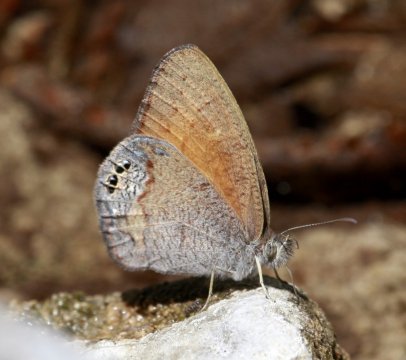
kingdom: Animalia
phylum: Arthropoda
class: Insecta
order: Lepidoptera
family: Nymphalidae
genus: Euptychia
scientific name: Euptychia Cyllopsis pertepida
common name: Canyonland Satyr
